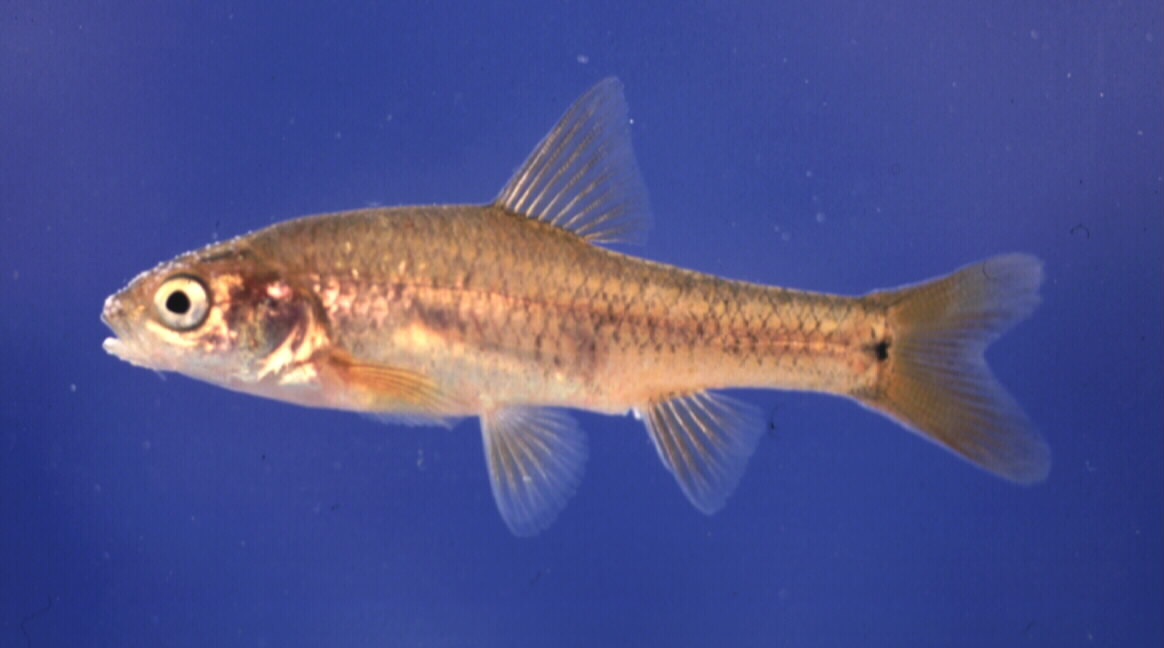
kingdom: Animalia
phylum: Chordata
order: Cypriniformes
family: Cyprinidae
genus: Enteromius
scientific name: Enteromius gurneyi
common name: Redtail barb
